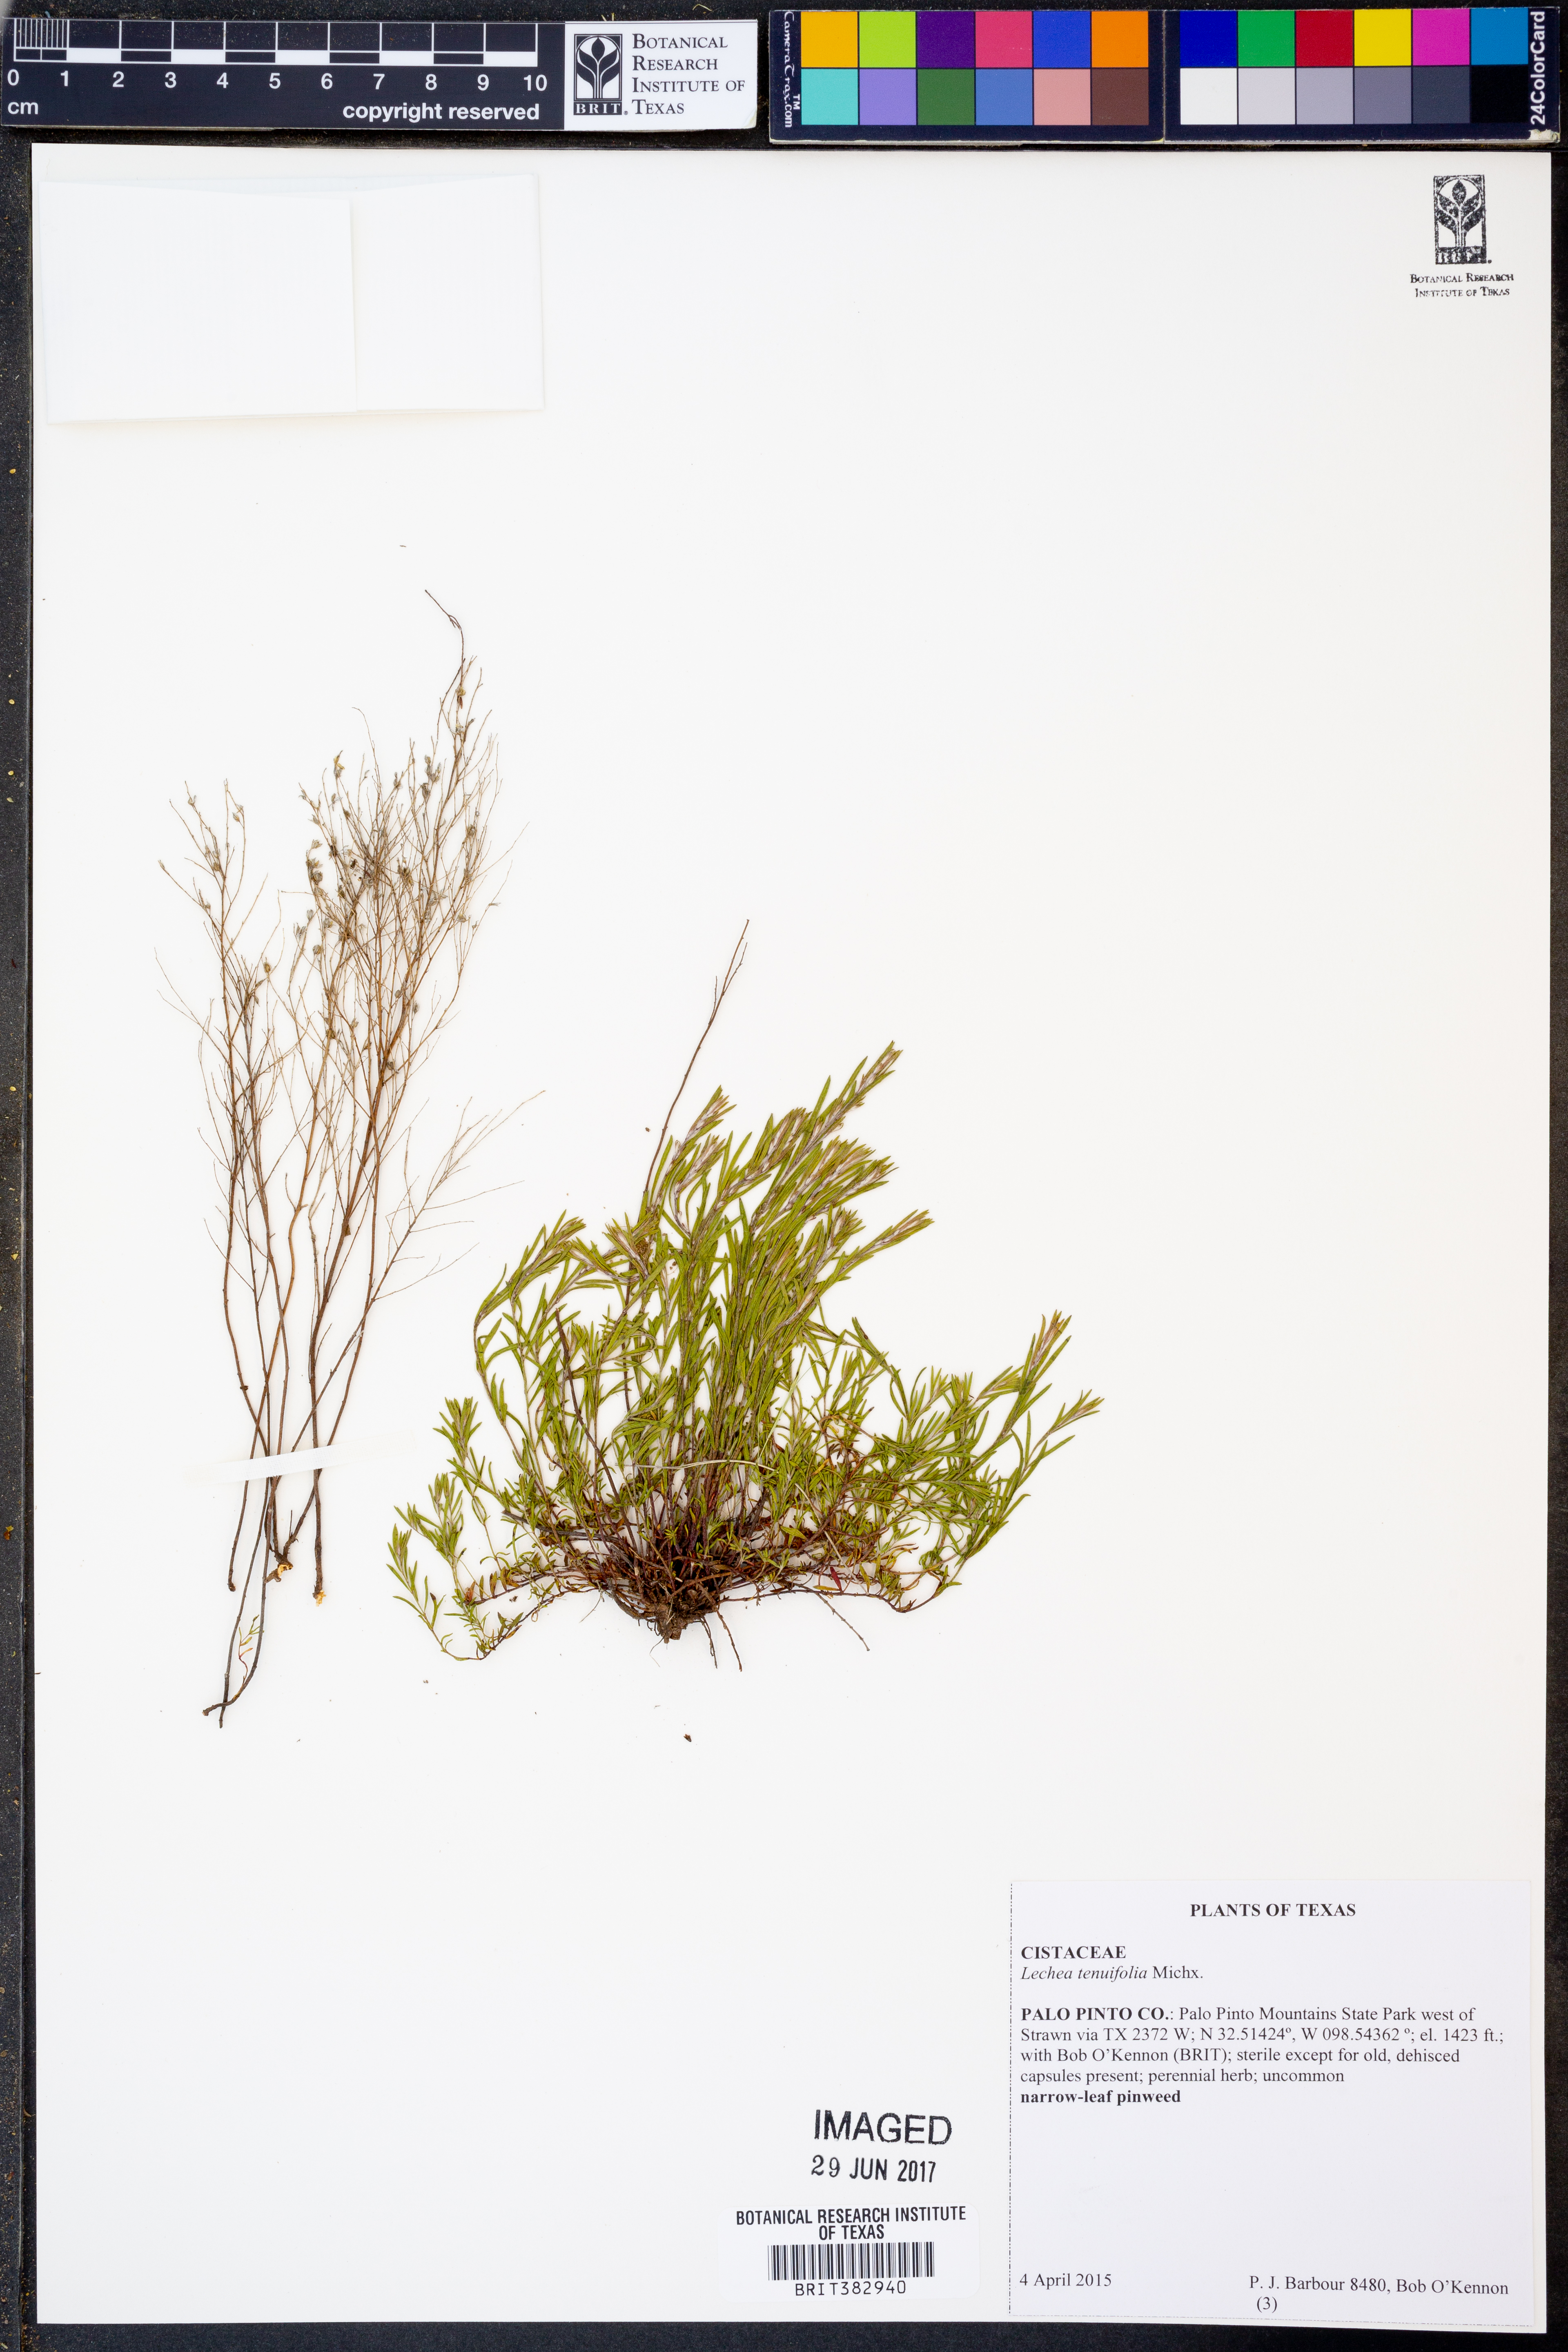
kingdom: Plantae
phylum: Tracheophyta
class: Magnoliopsida
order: Malvales
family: Cistaceae
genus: Lechea
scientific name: Lechea tenuifolia
